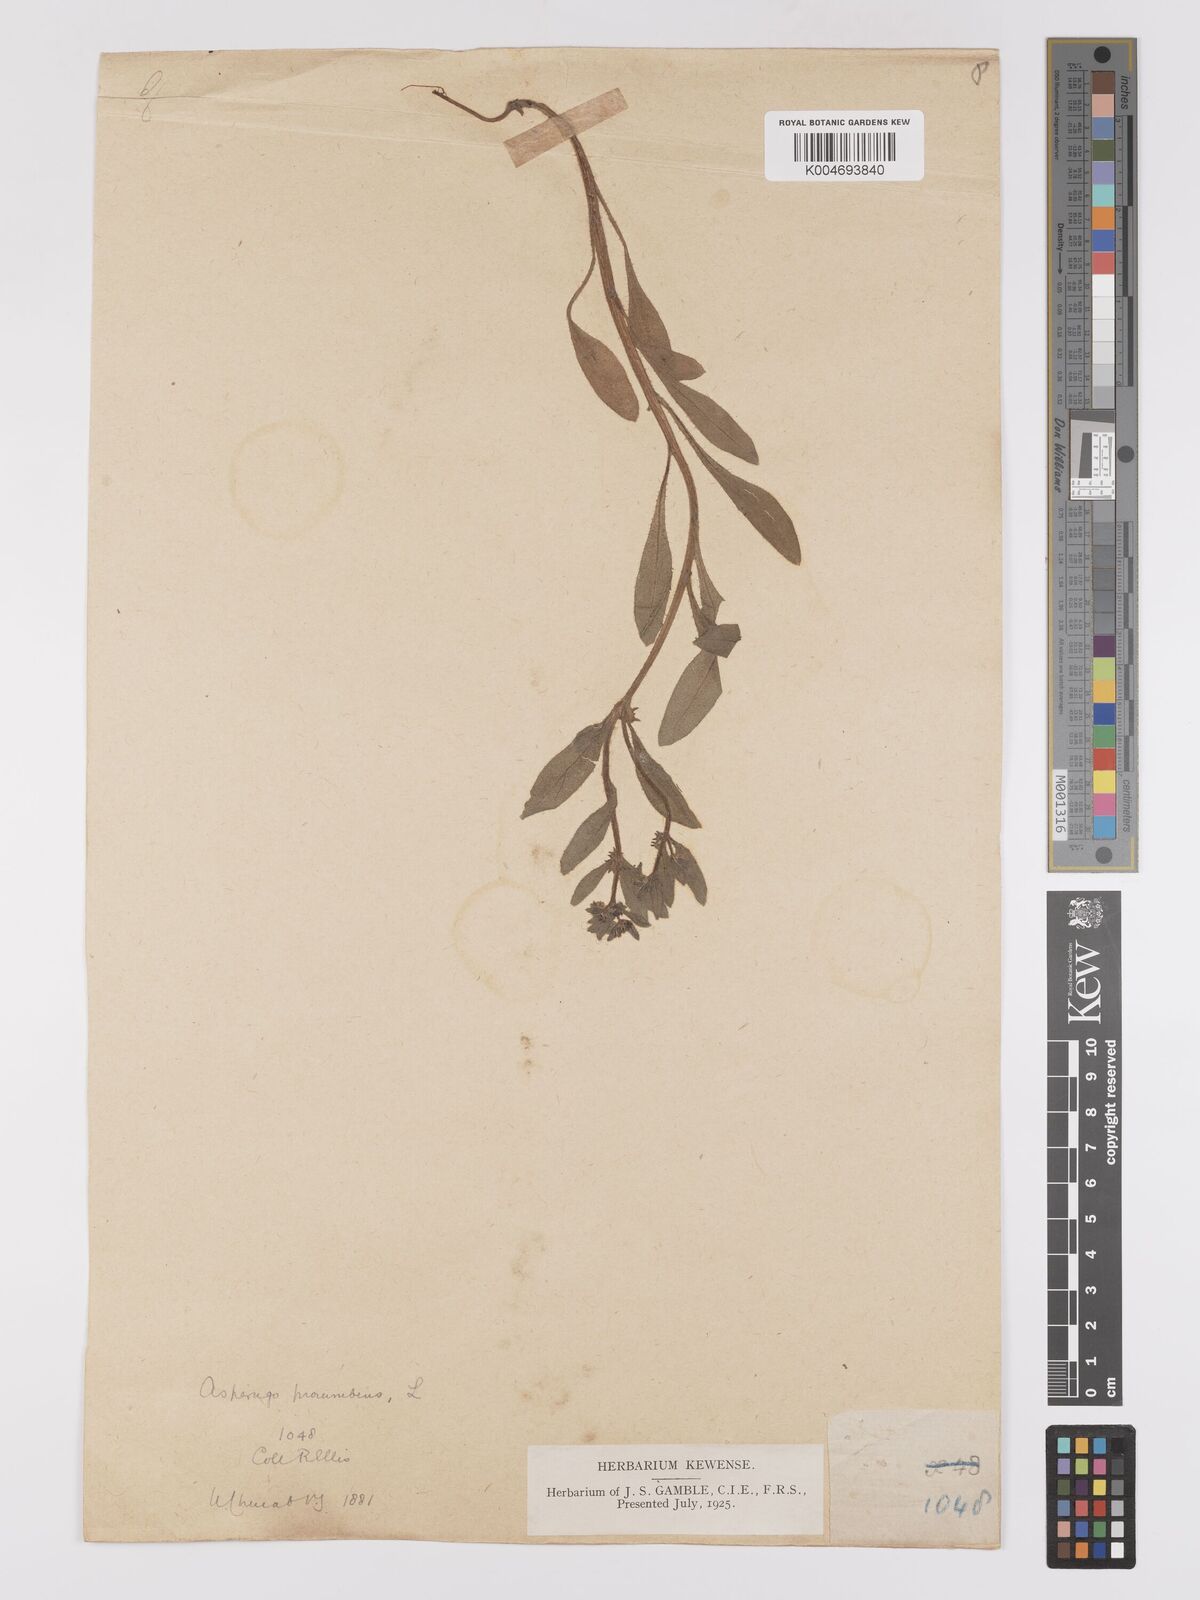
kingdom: Plantae
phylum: Tracheophyta
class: Magnoliopsida
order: Boraginales
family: Boraginaceae
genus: Asperugo
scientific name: Asperugo procumbens
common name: Madwort
